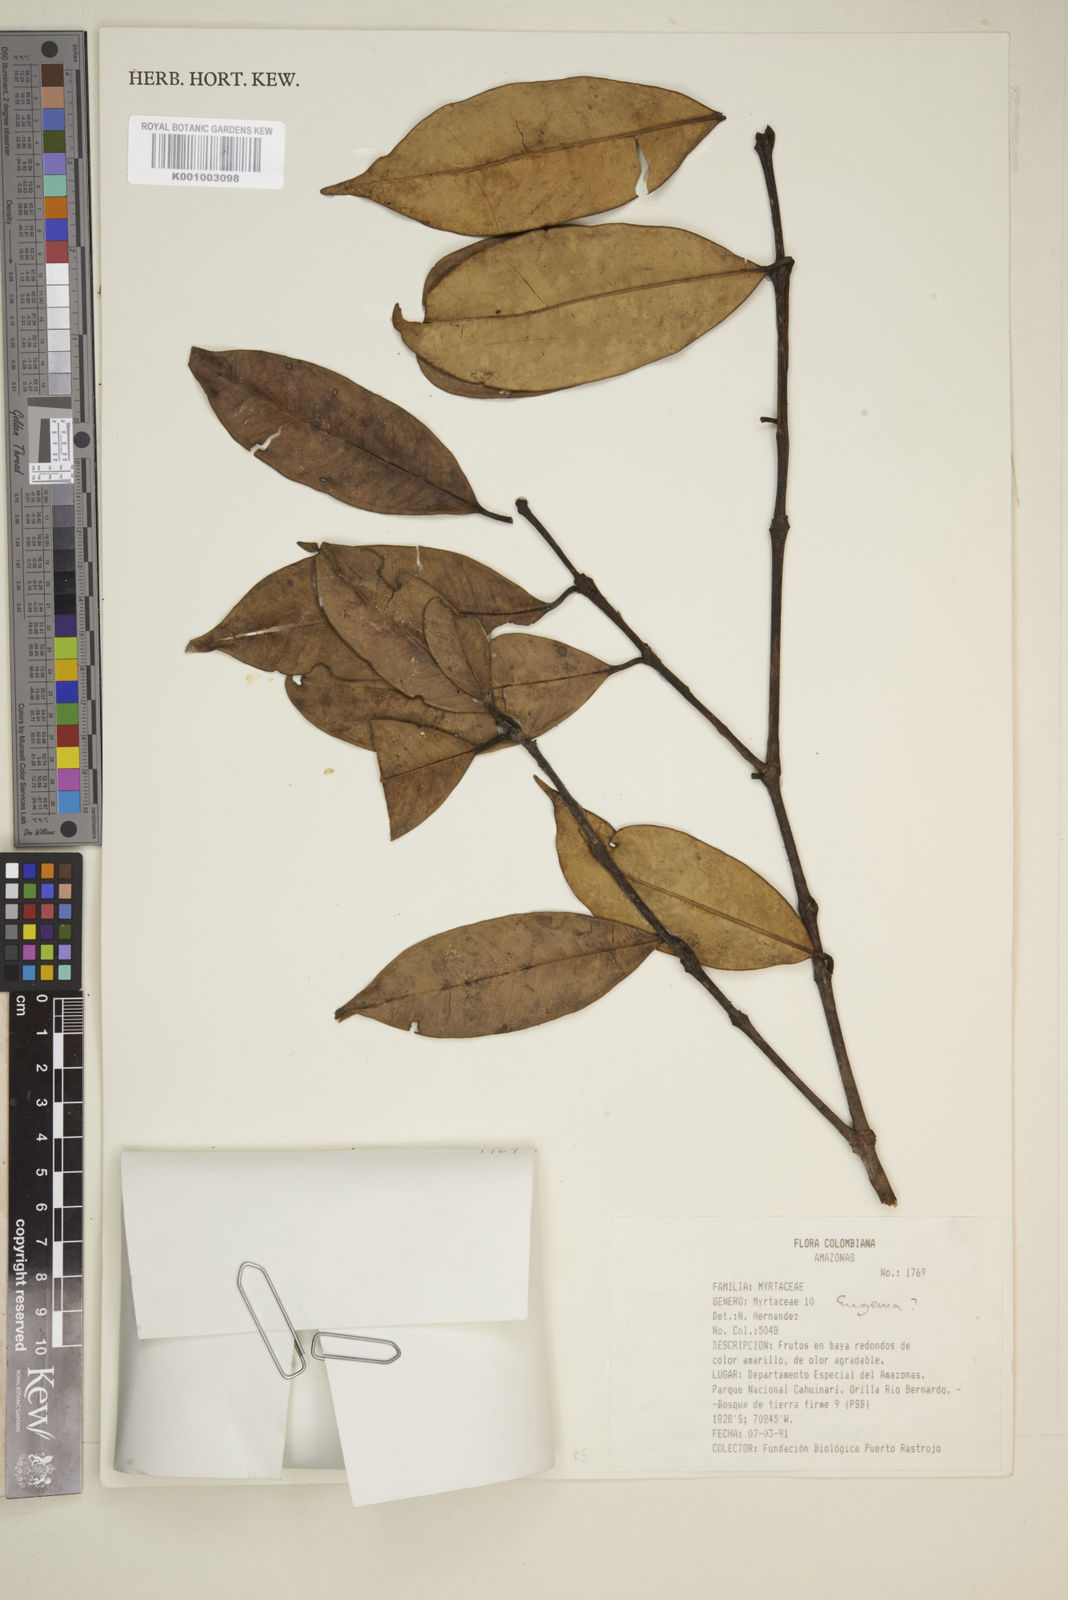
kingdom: Plantae
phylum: Tracheophyta
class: Magnoliopsida
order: Myrtales
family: Myrtaceae
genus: Eugenia
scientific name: Eugenia
